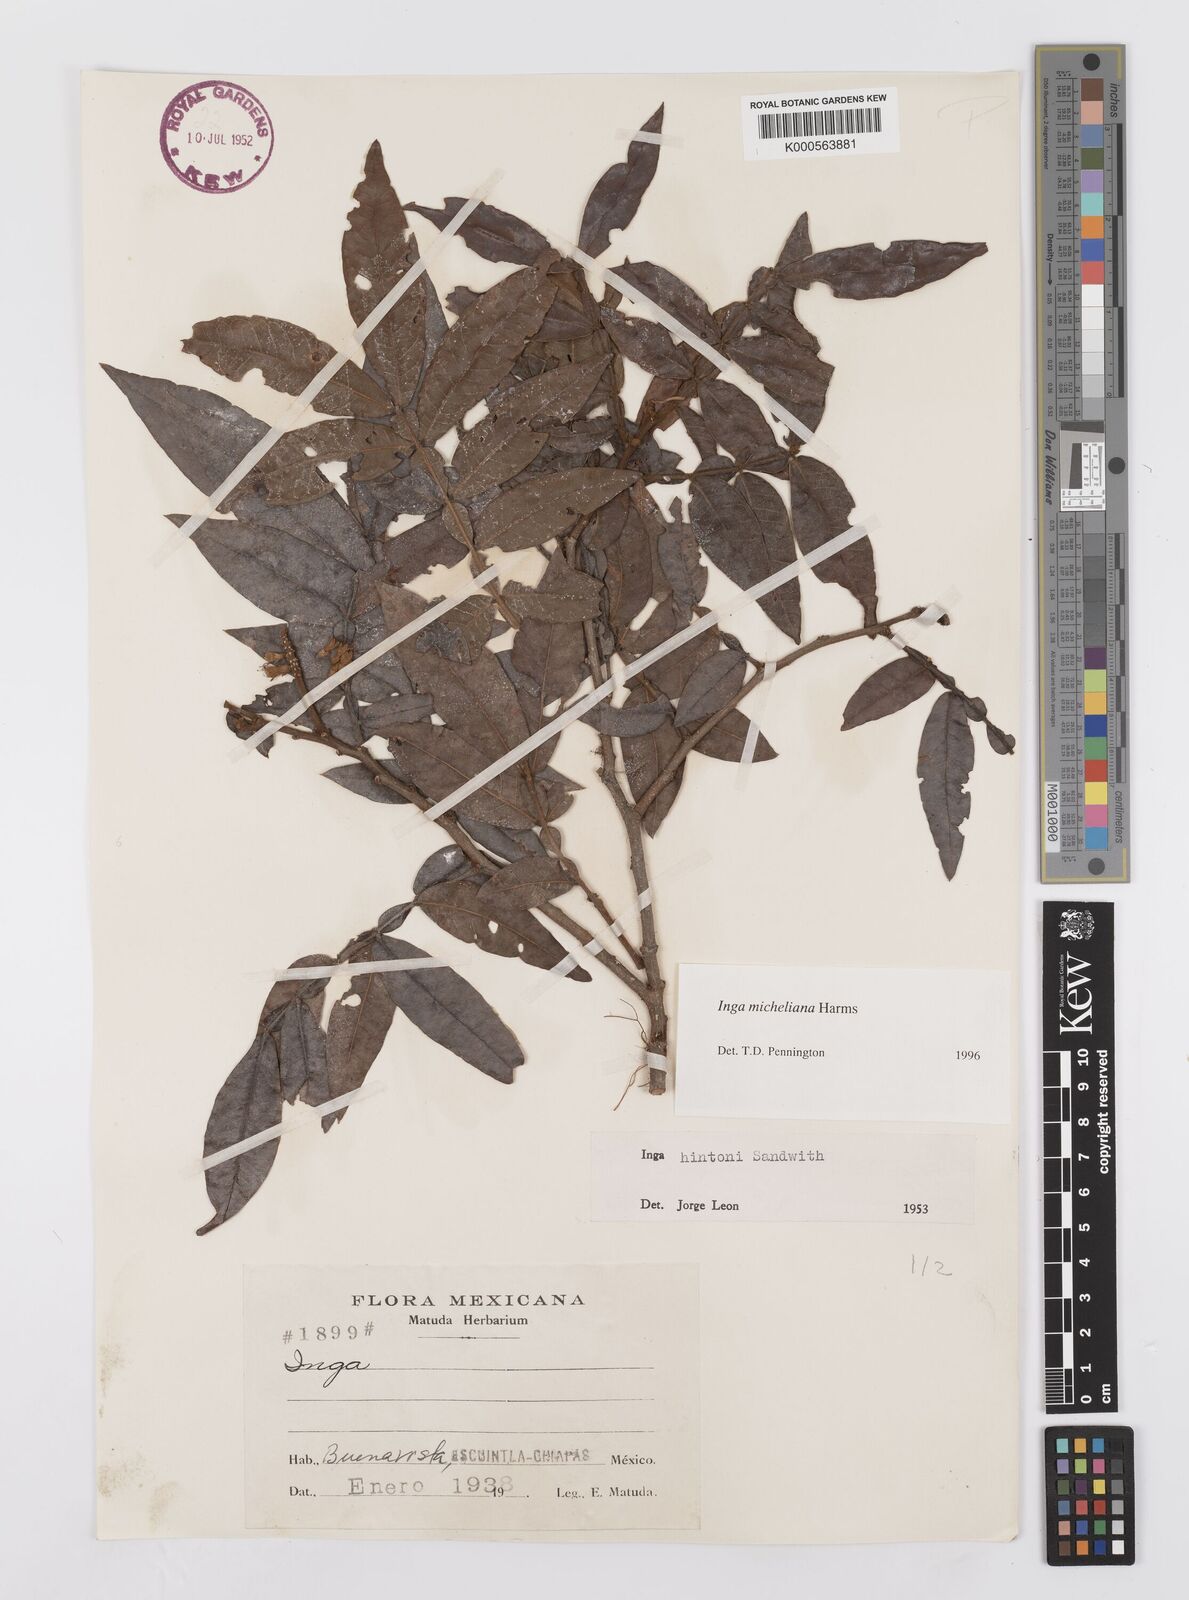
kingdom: Plantae
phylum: Tracheophyta
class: Magnoliopsida
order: Fabales
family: Fabaceae
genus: Inga
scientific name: Inga flexuosa
